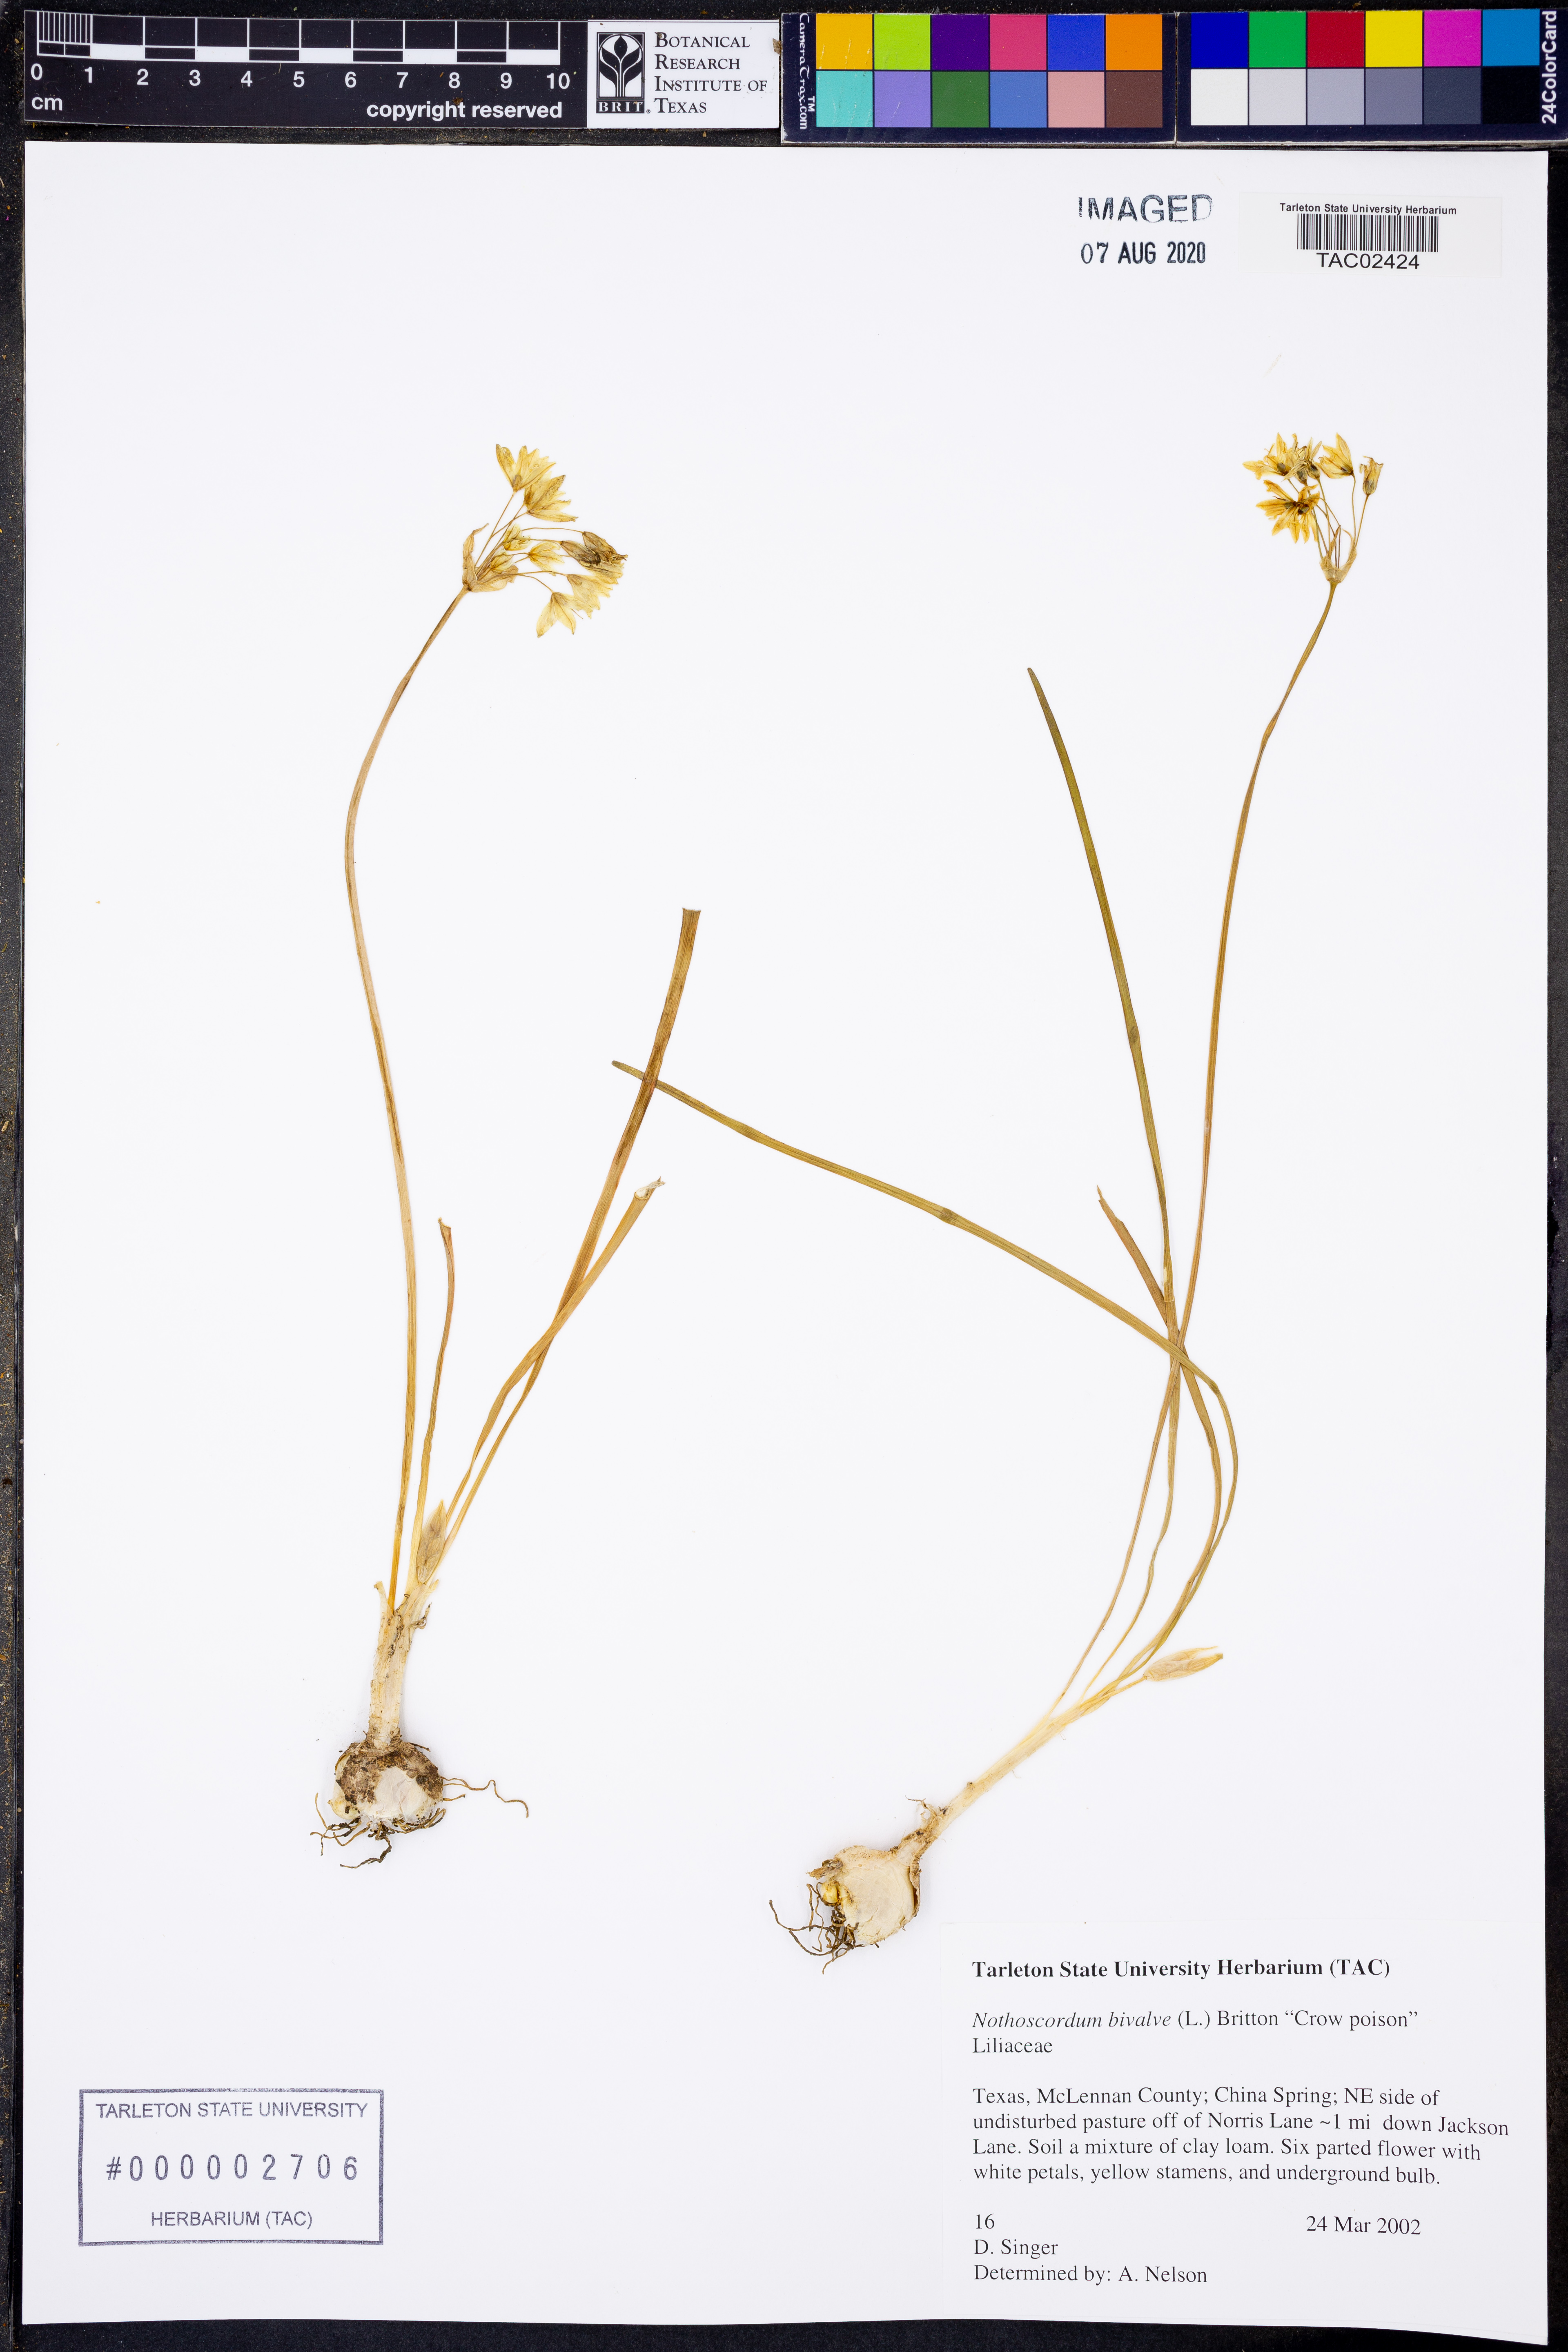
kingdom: Plantae
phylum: Tracheophyta
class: Liliopsida
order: Asparagales
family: Amaryllidaceae
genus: Nothoscordum
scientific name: Nothoscordum bivalve
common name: Crow-poison
